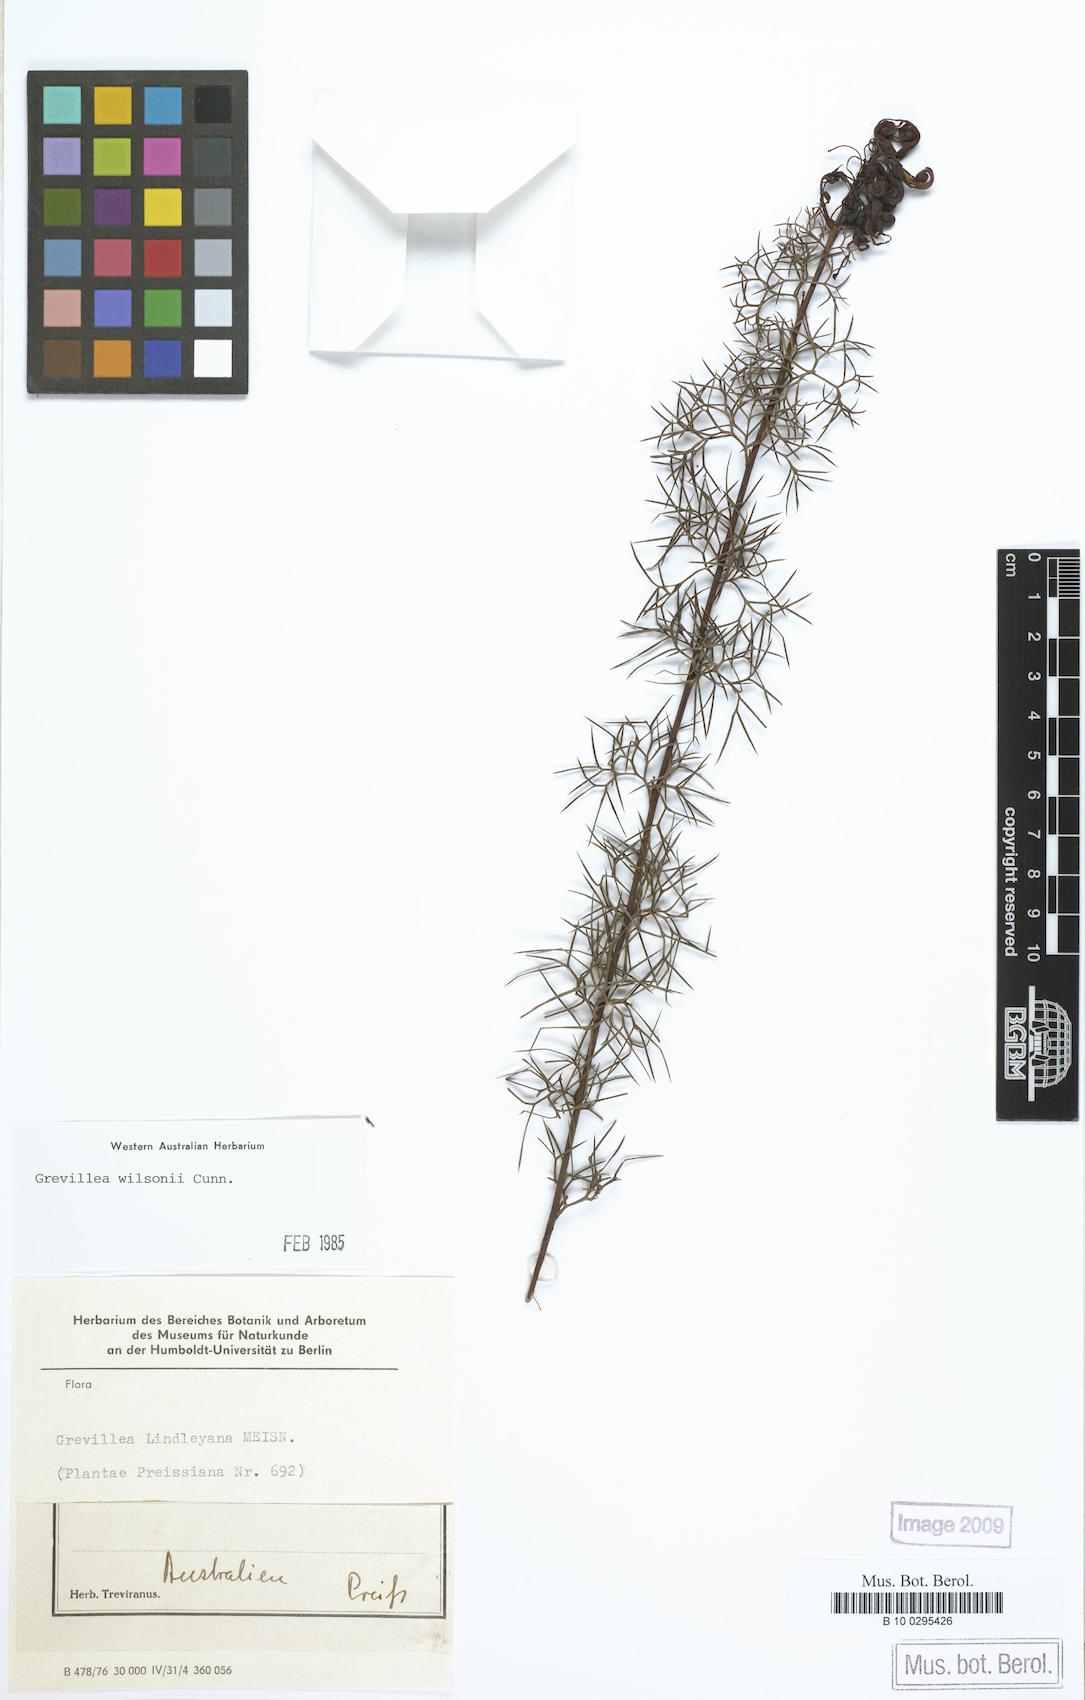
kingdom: Plantae
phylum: Tracheophyta
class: Magnoliopsida
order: Proteales
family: Proteaceae
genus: Grevillea
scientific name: Grevillea wilsonii
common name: Fire-wheel
